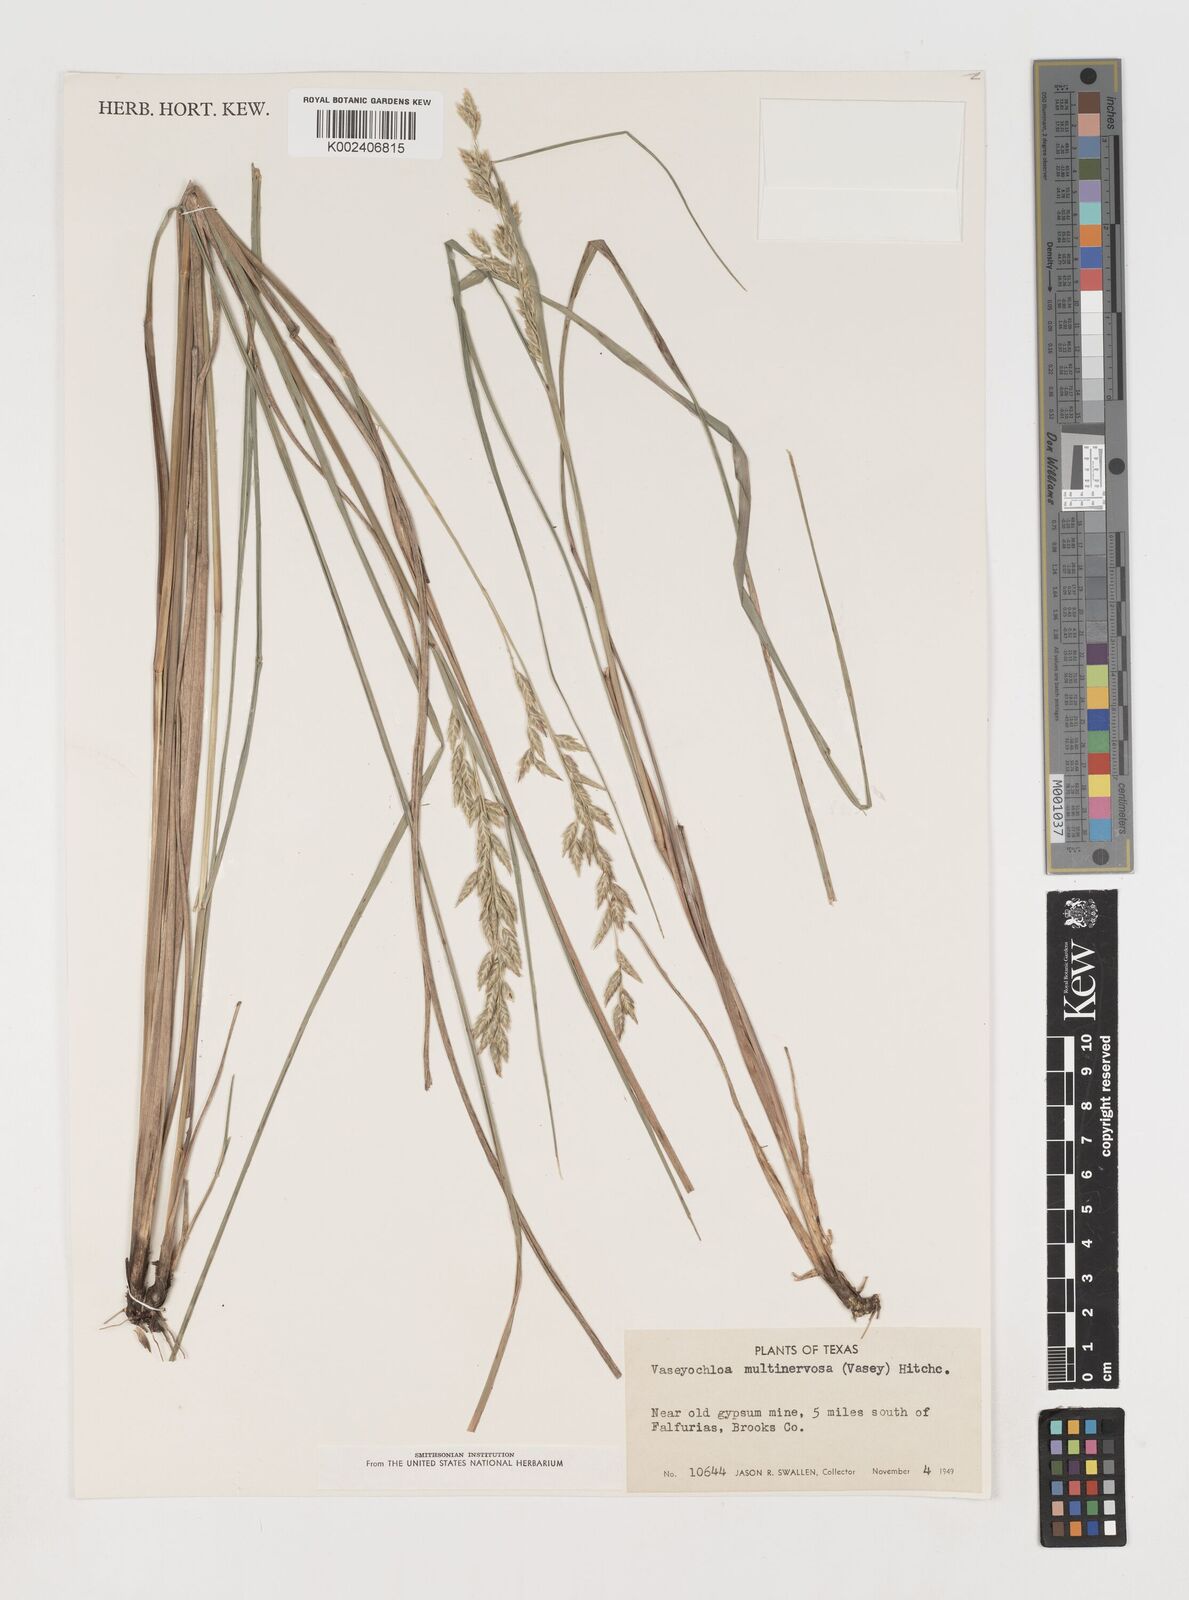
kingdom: Plantae
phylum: Tracheophyta
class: Liliopsida
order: Poales
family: Poaceae
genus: Vaseyochloa
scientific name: Vaseyochloa multinervosa
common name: Texas grass
